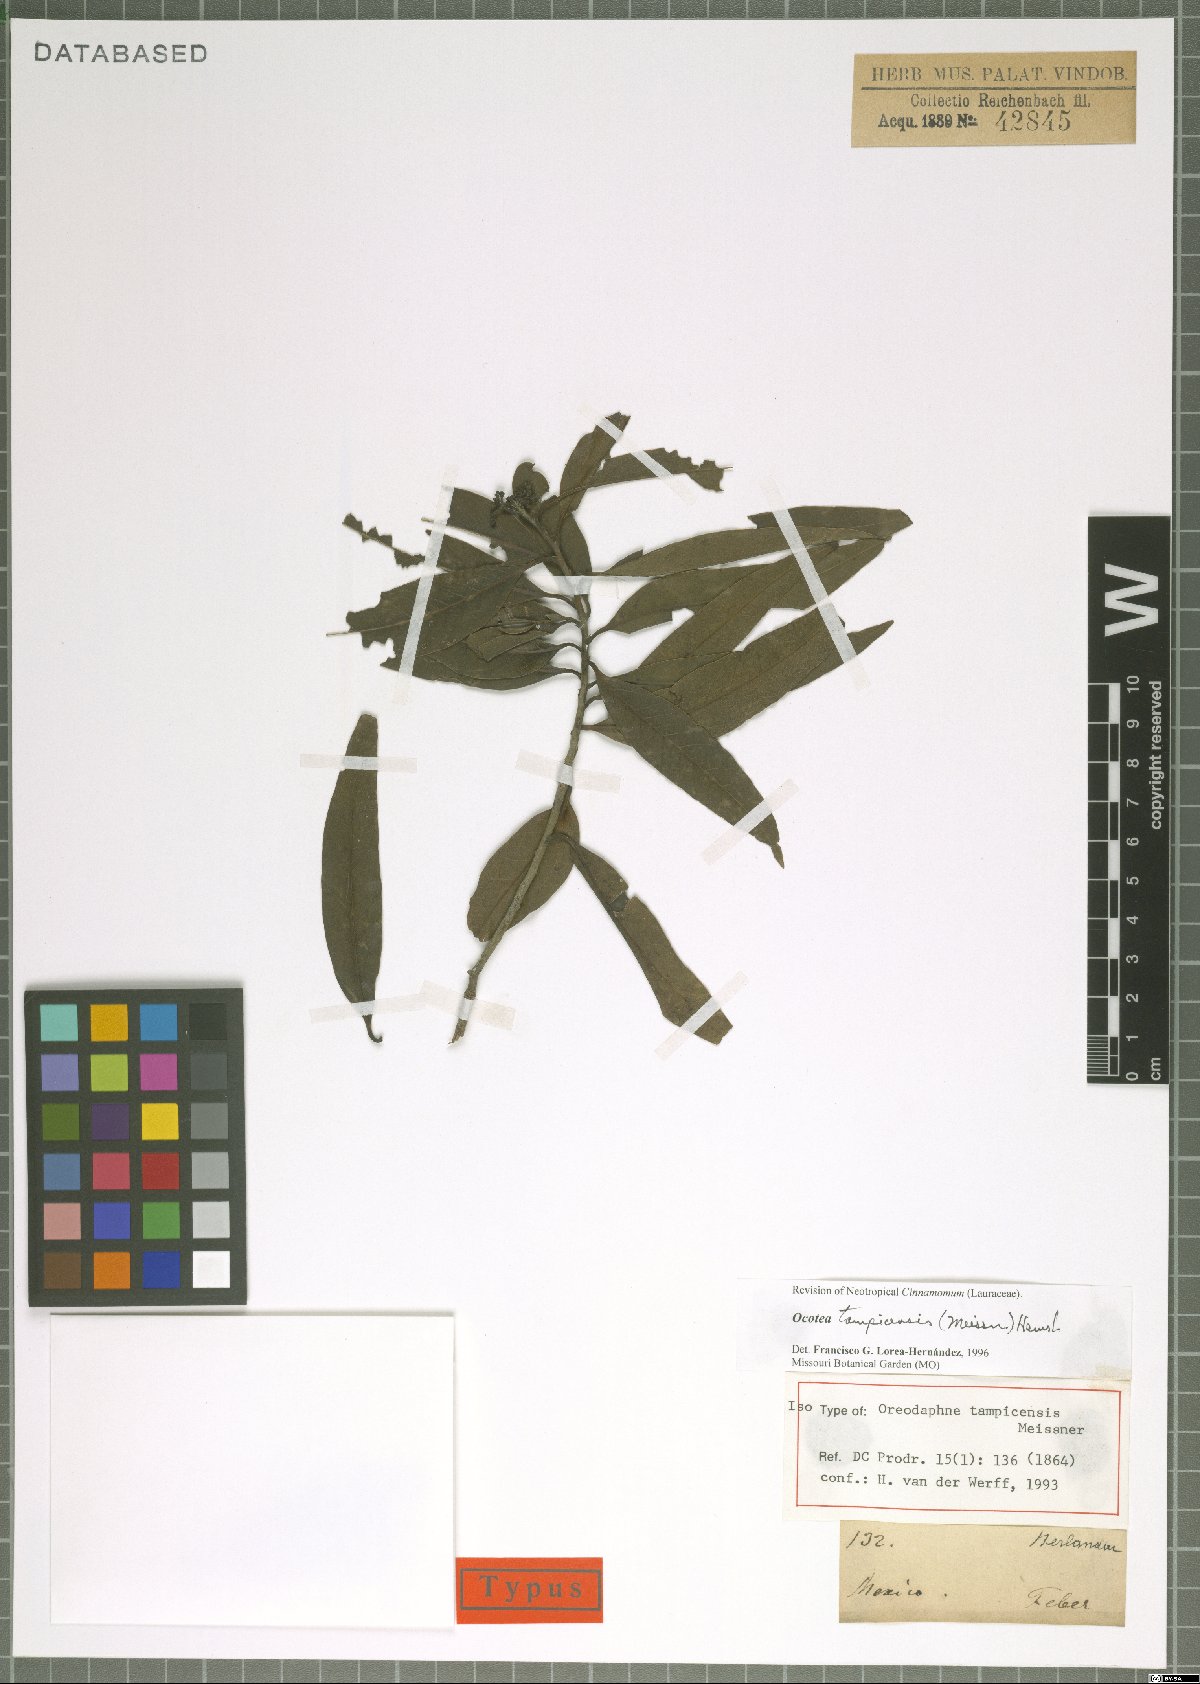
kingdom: Plantae
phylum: Tracheophyta
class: Magnoliopsida
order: Laurales
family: Lauraceae
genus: Ocotea
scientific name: Ocotea tampicensis
